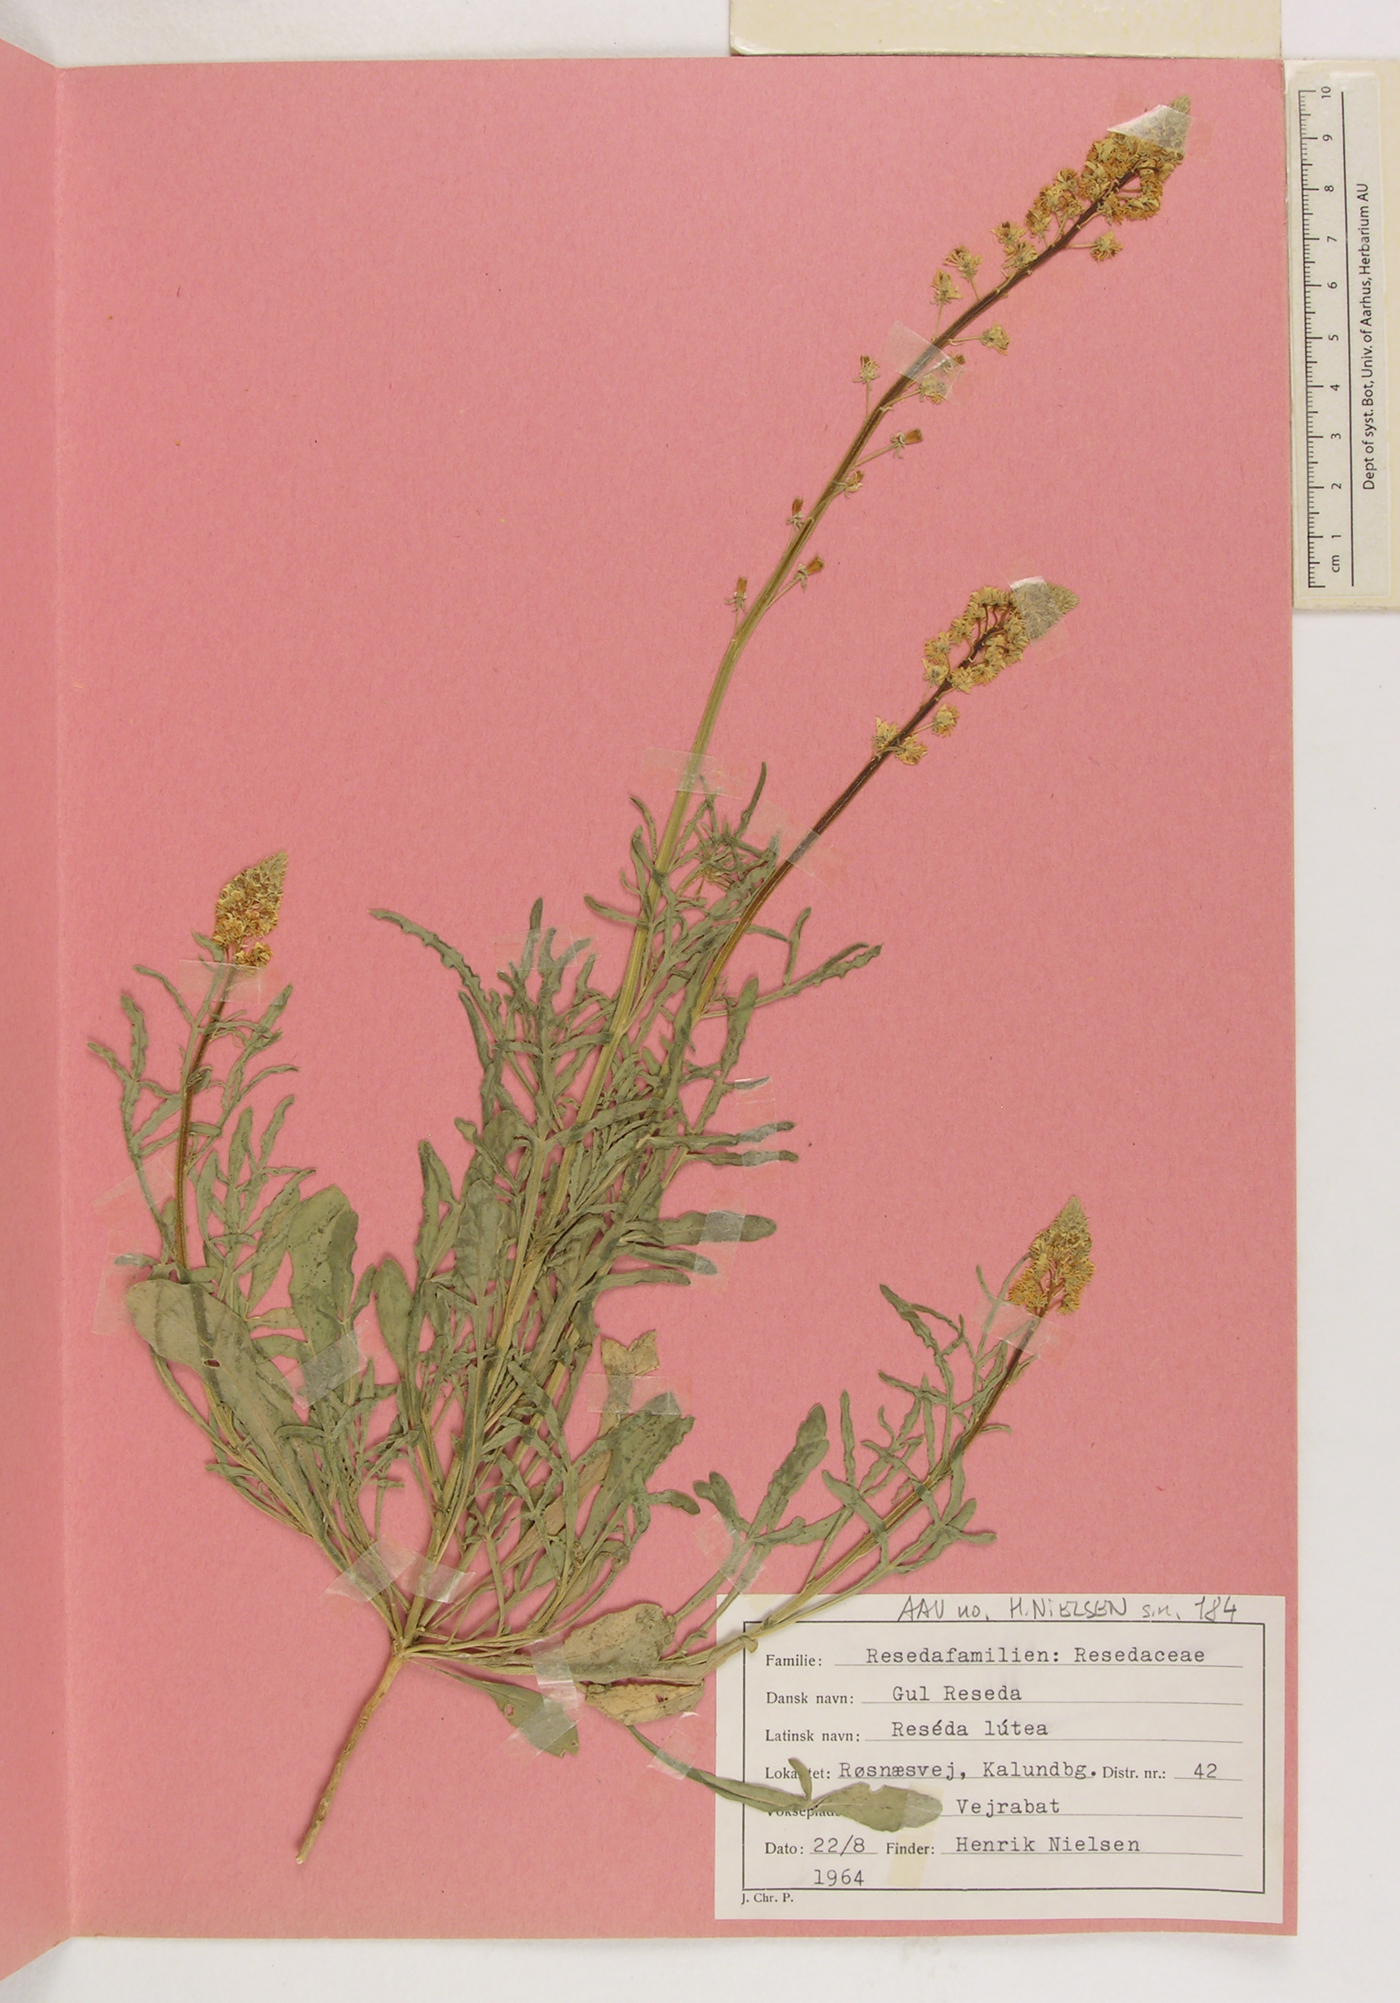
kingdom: Plantae
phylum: Tracheophyta
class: Magnoliopsida
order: Brassicales
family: Resedaceae
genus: Reseda
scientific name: Reseda lutea
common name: Wild mignonette
